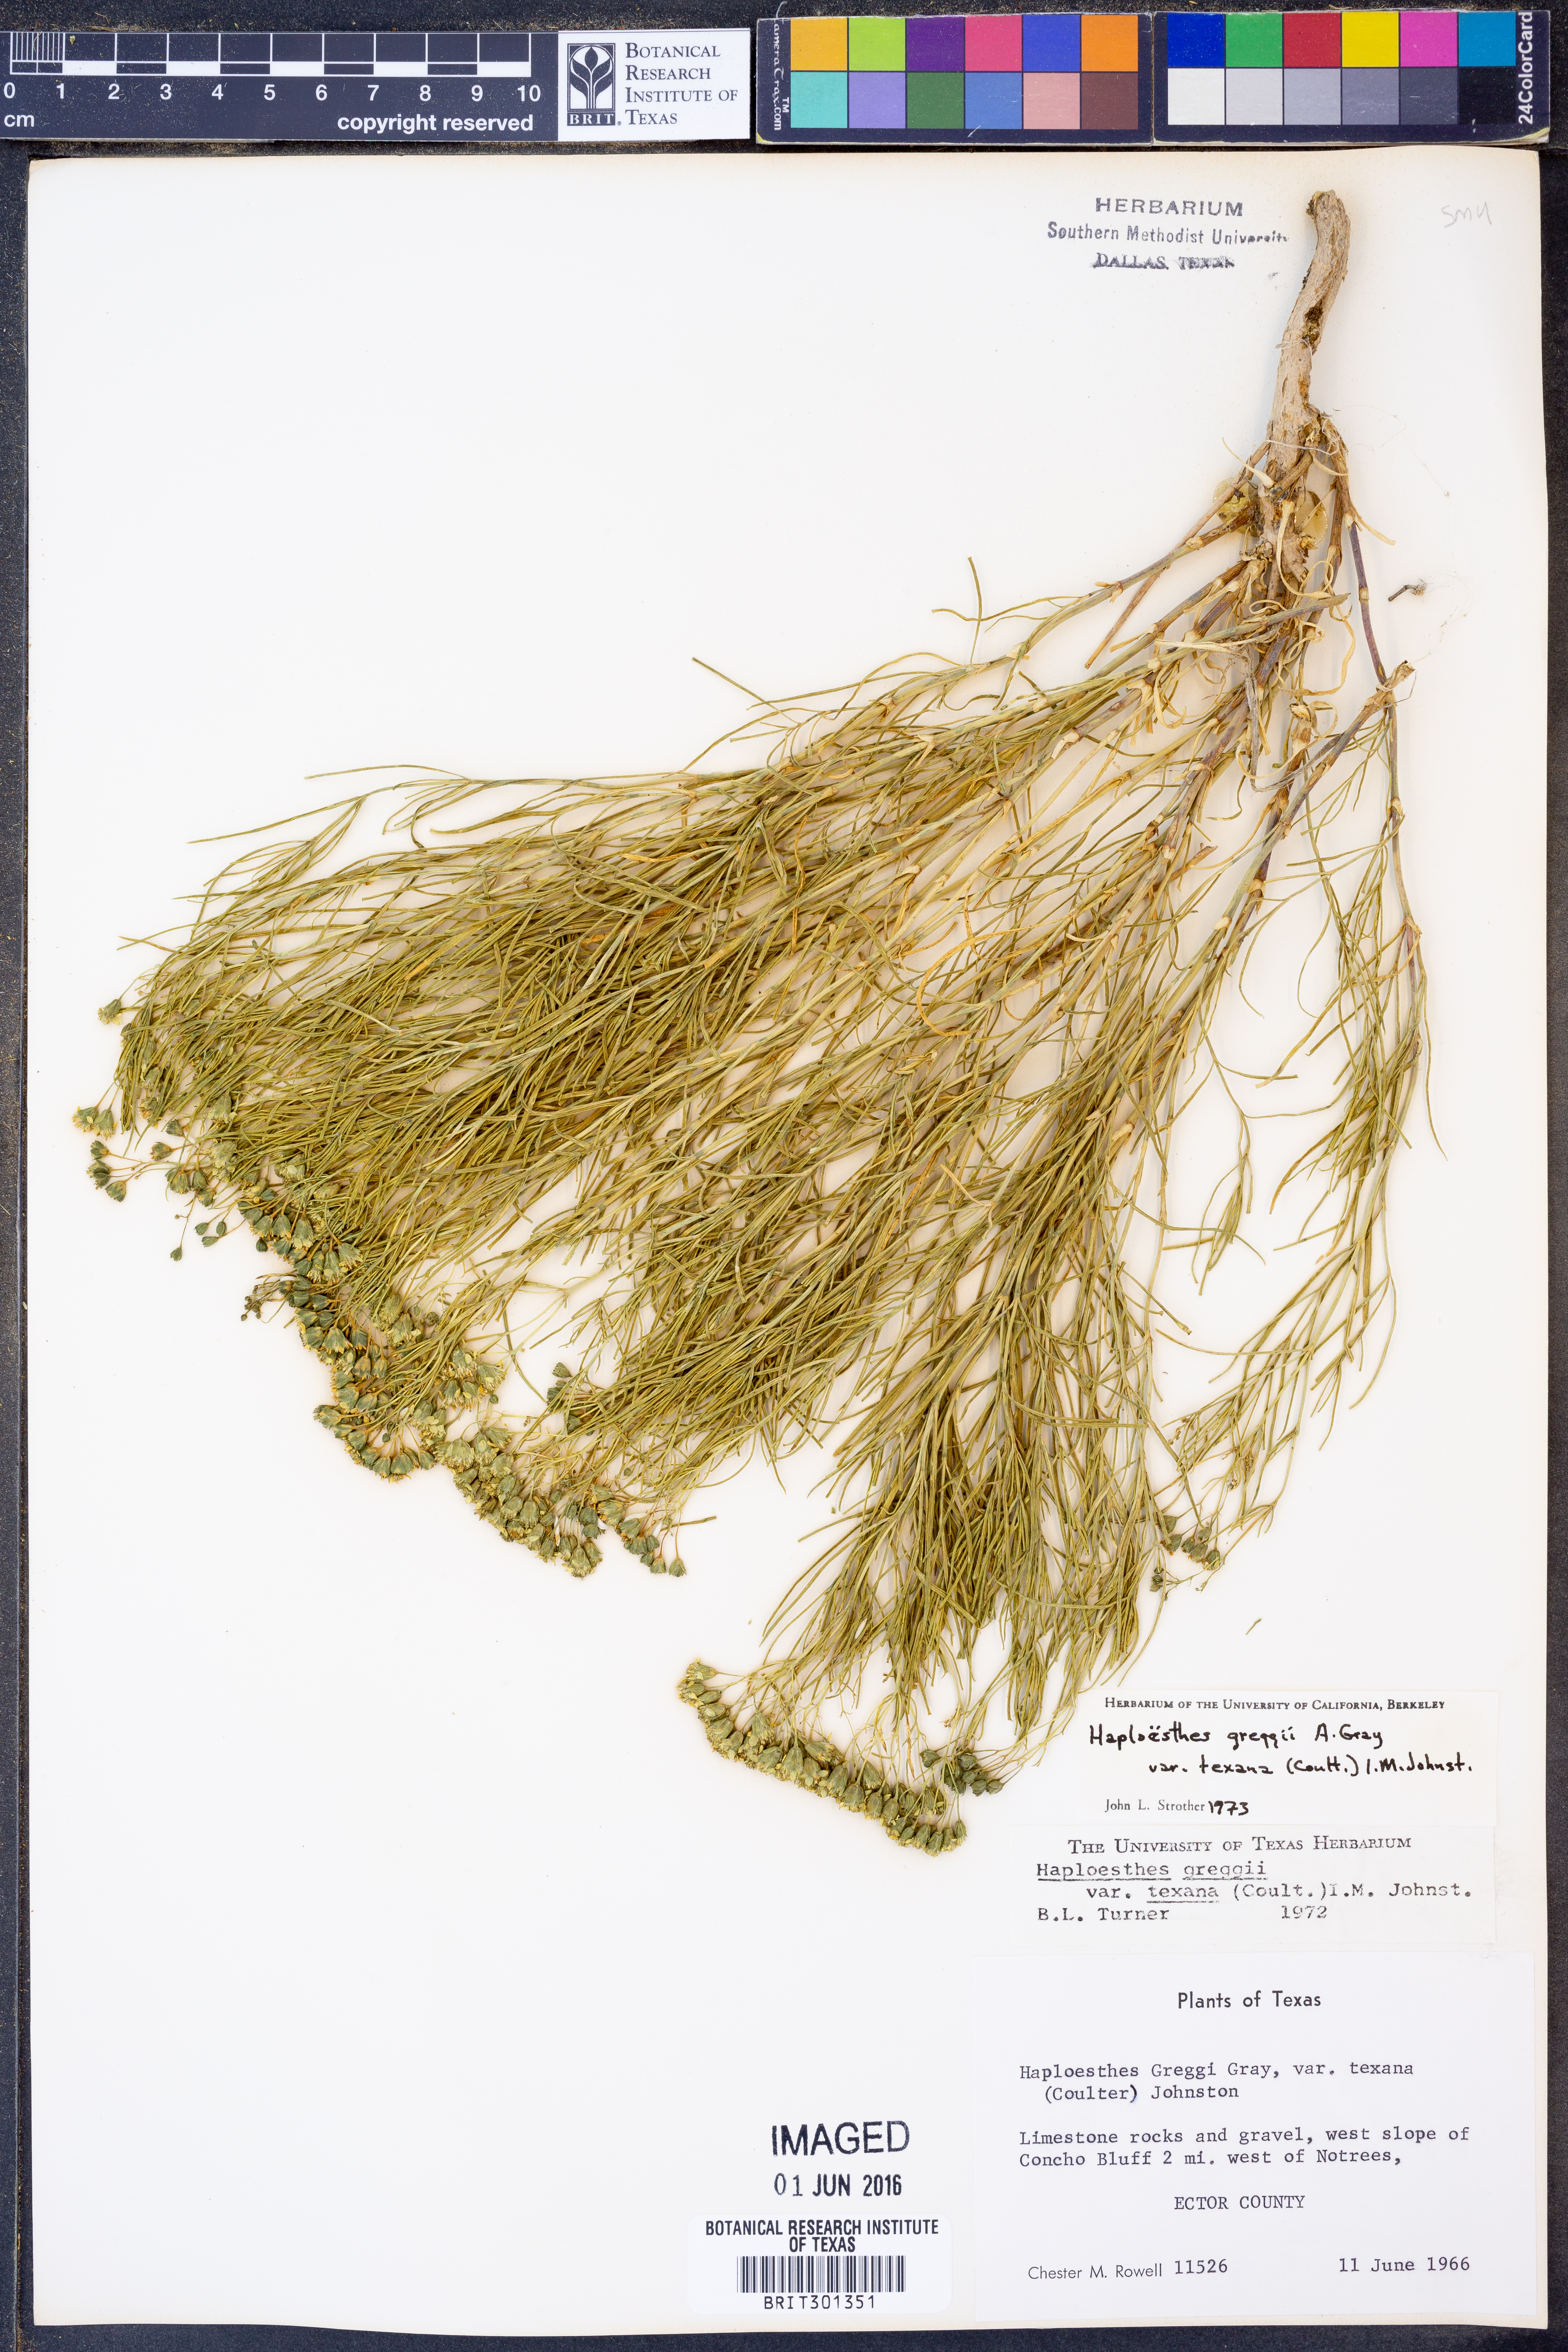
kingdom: Plantae
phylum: Tracheophyta
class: Magnoliopsida
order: Asterales
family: Asteraceae
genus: Haploesthes
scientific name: Haploesthes greggii
